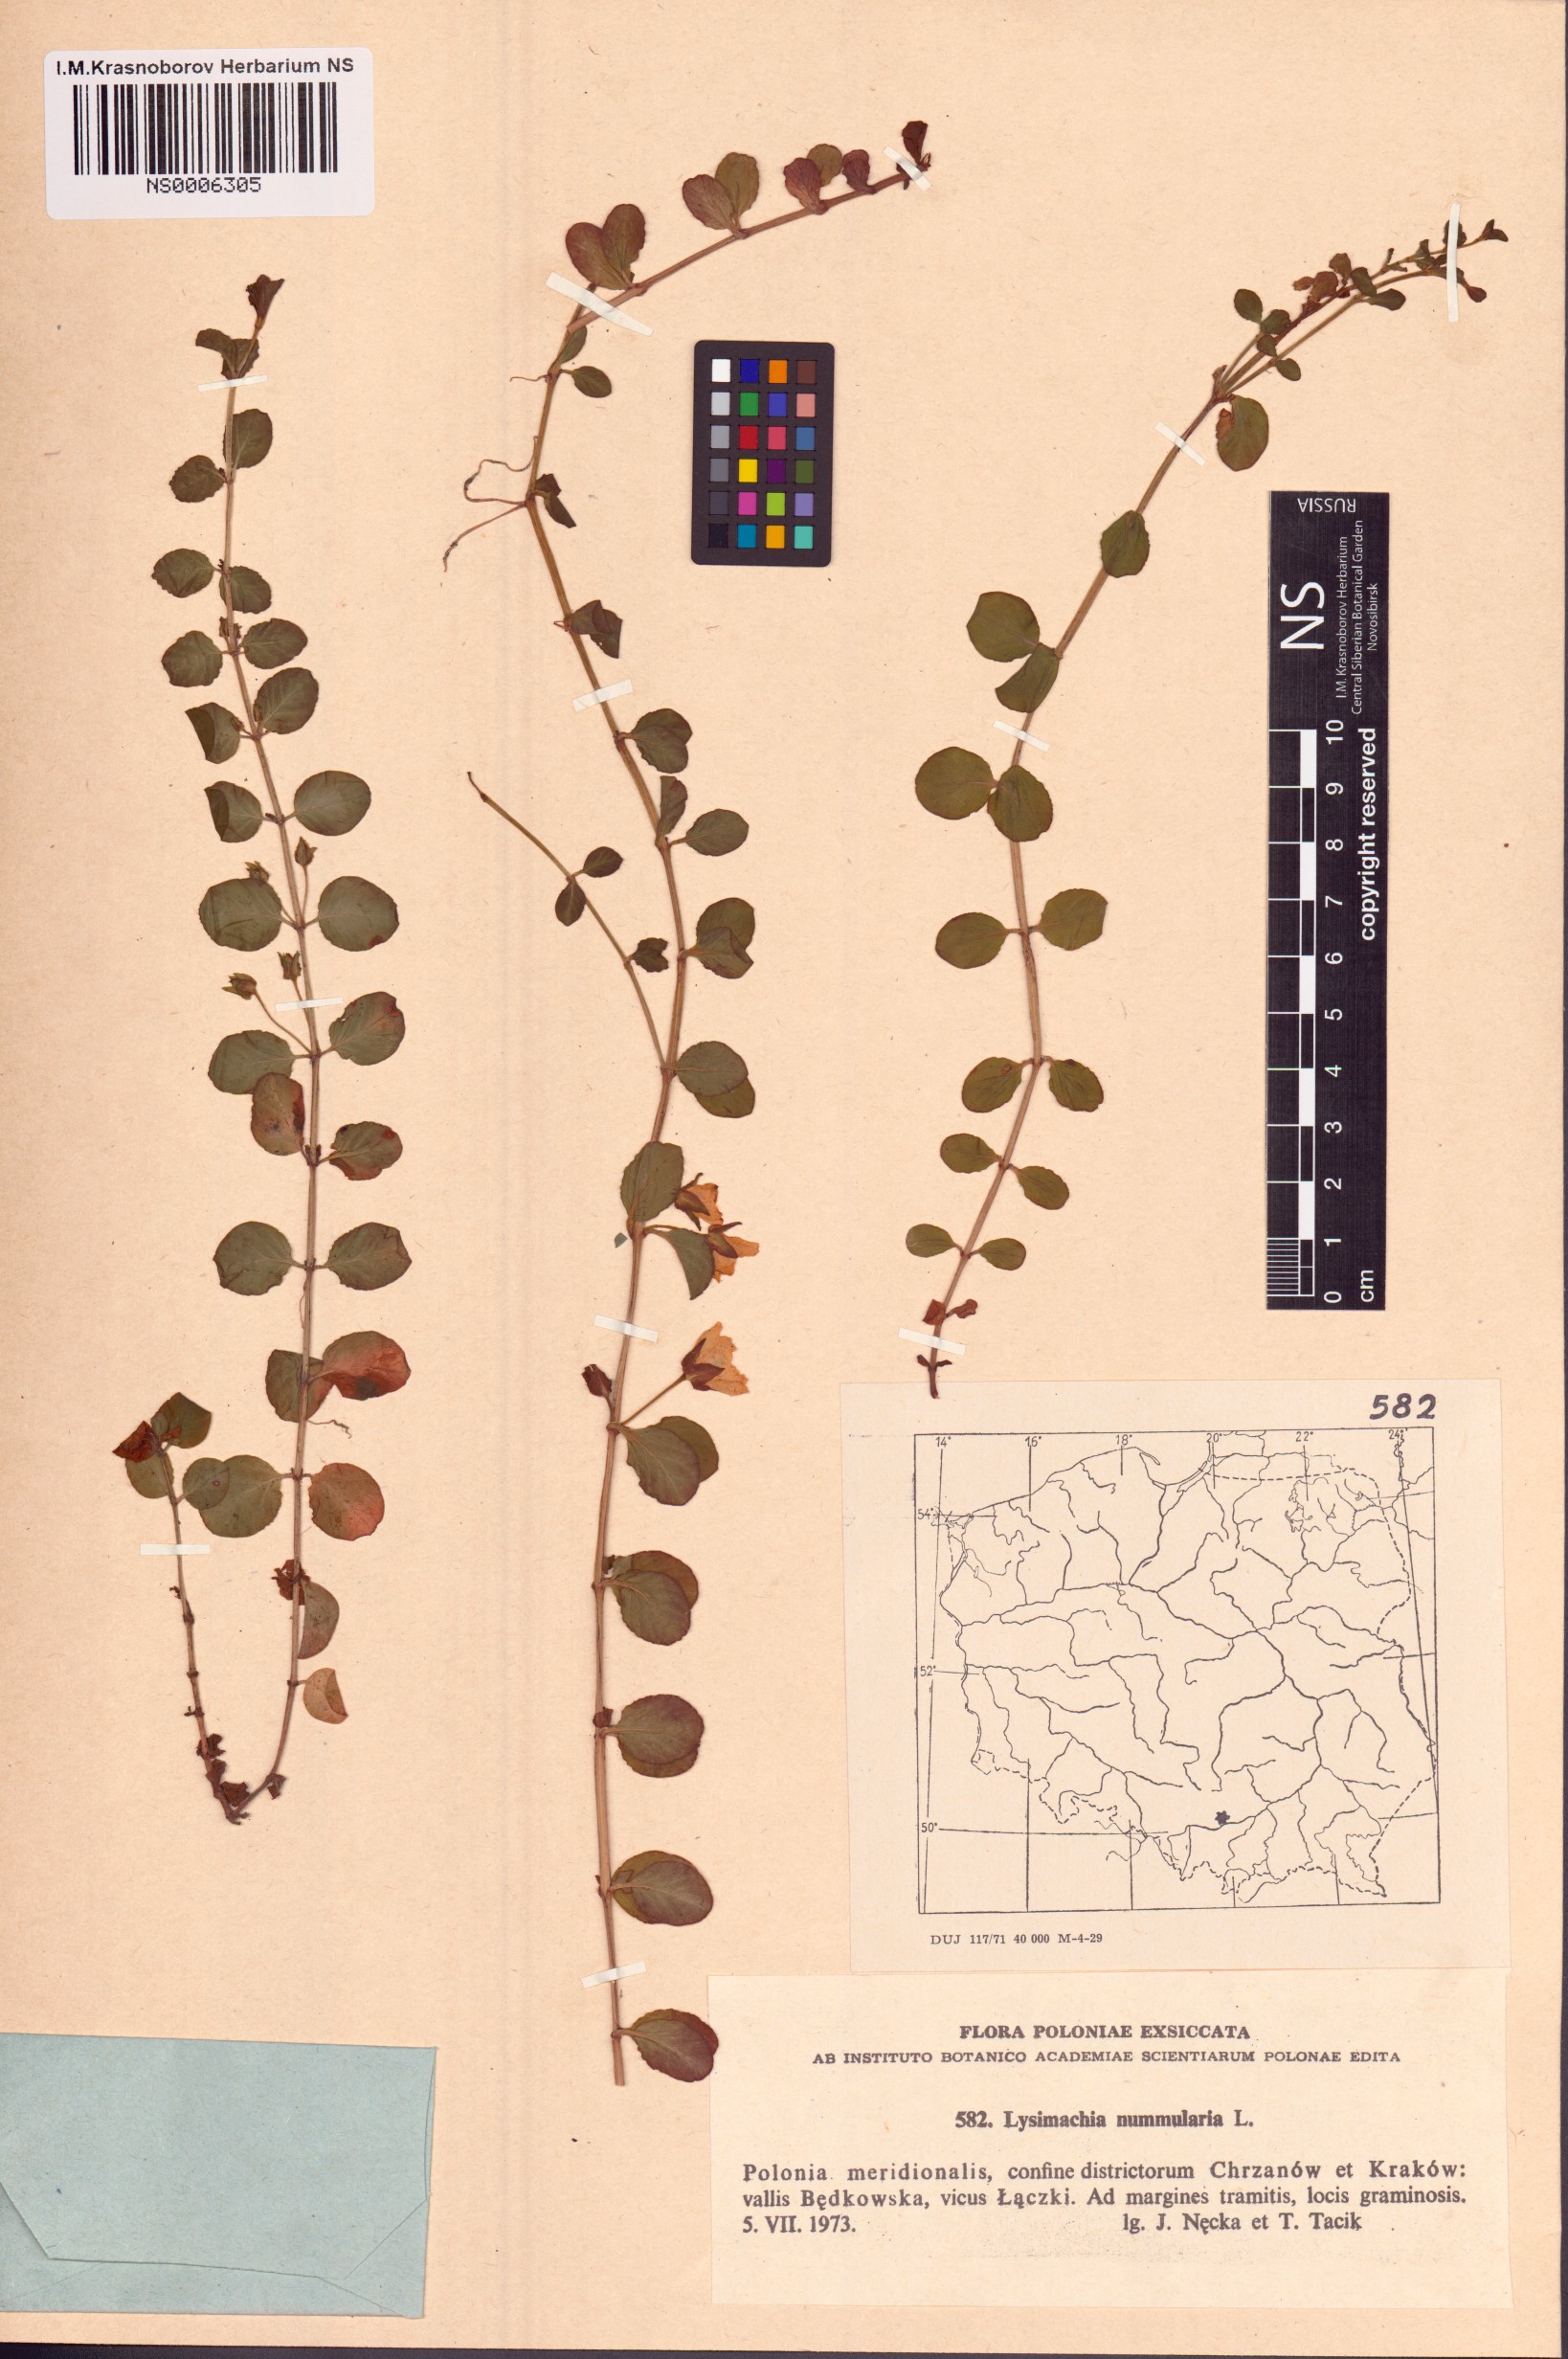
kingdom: Plantae
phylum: Tracheophyta
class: Magnoliopsida
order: Ericales
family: Primulaceae
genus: Lysimachia
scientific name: Lysimachia nummularia
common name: Moneywort
